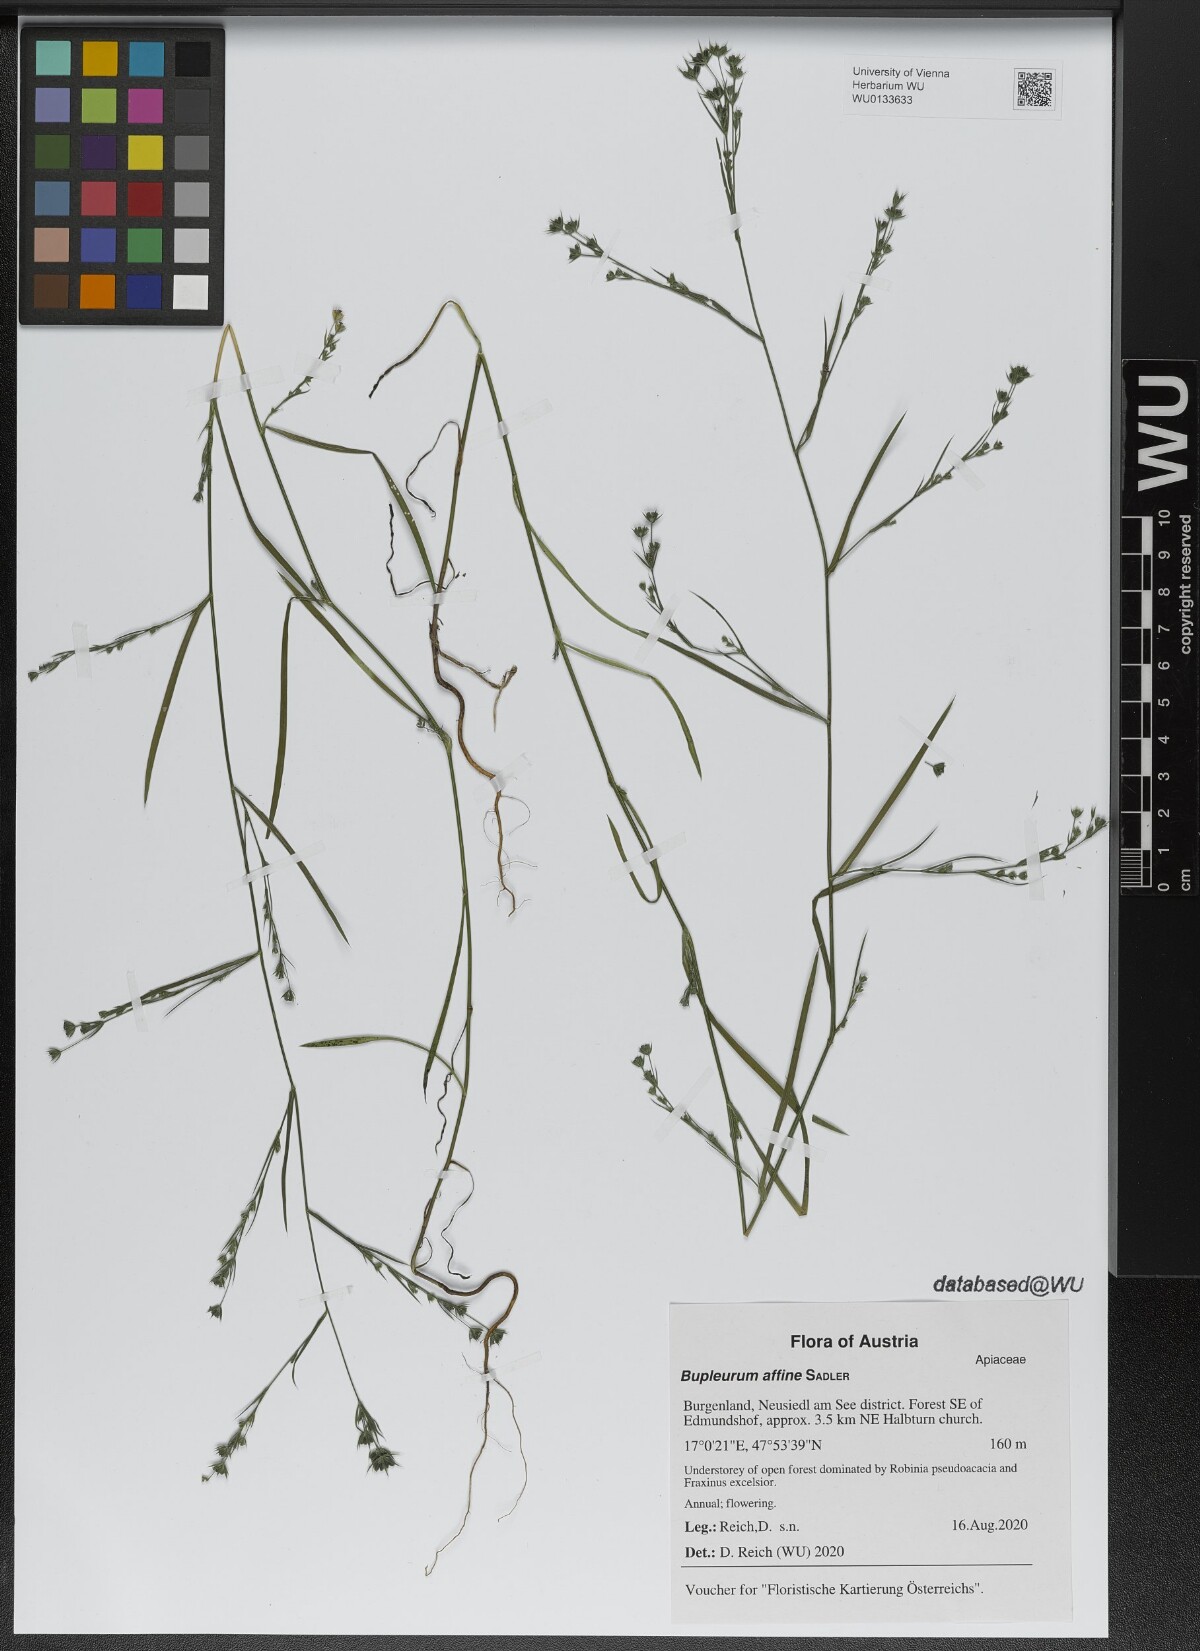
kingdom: Plantae
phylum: Tracheophyta
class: Magnoliopsida
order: Apiales
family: Apiaceae
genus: Bupleurum
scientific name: Bupleurum affine
